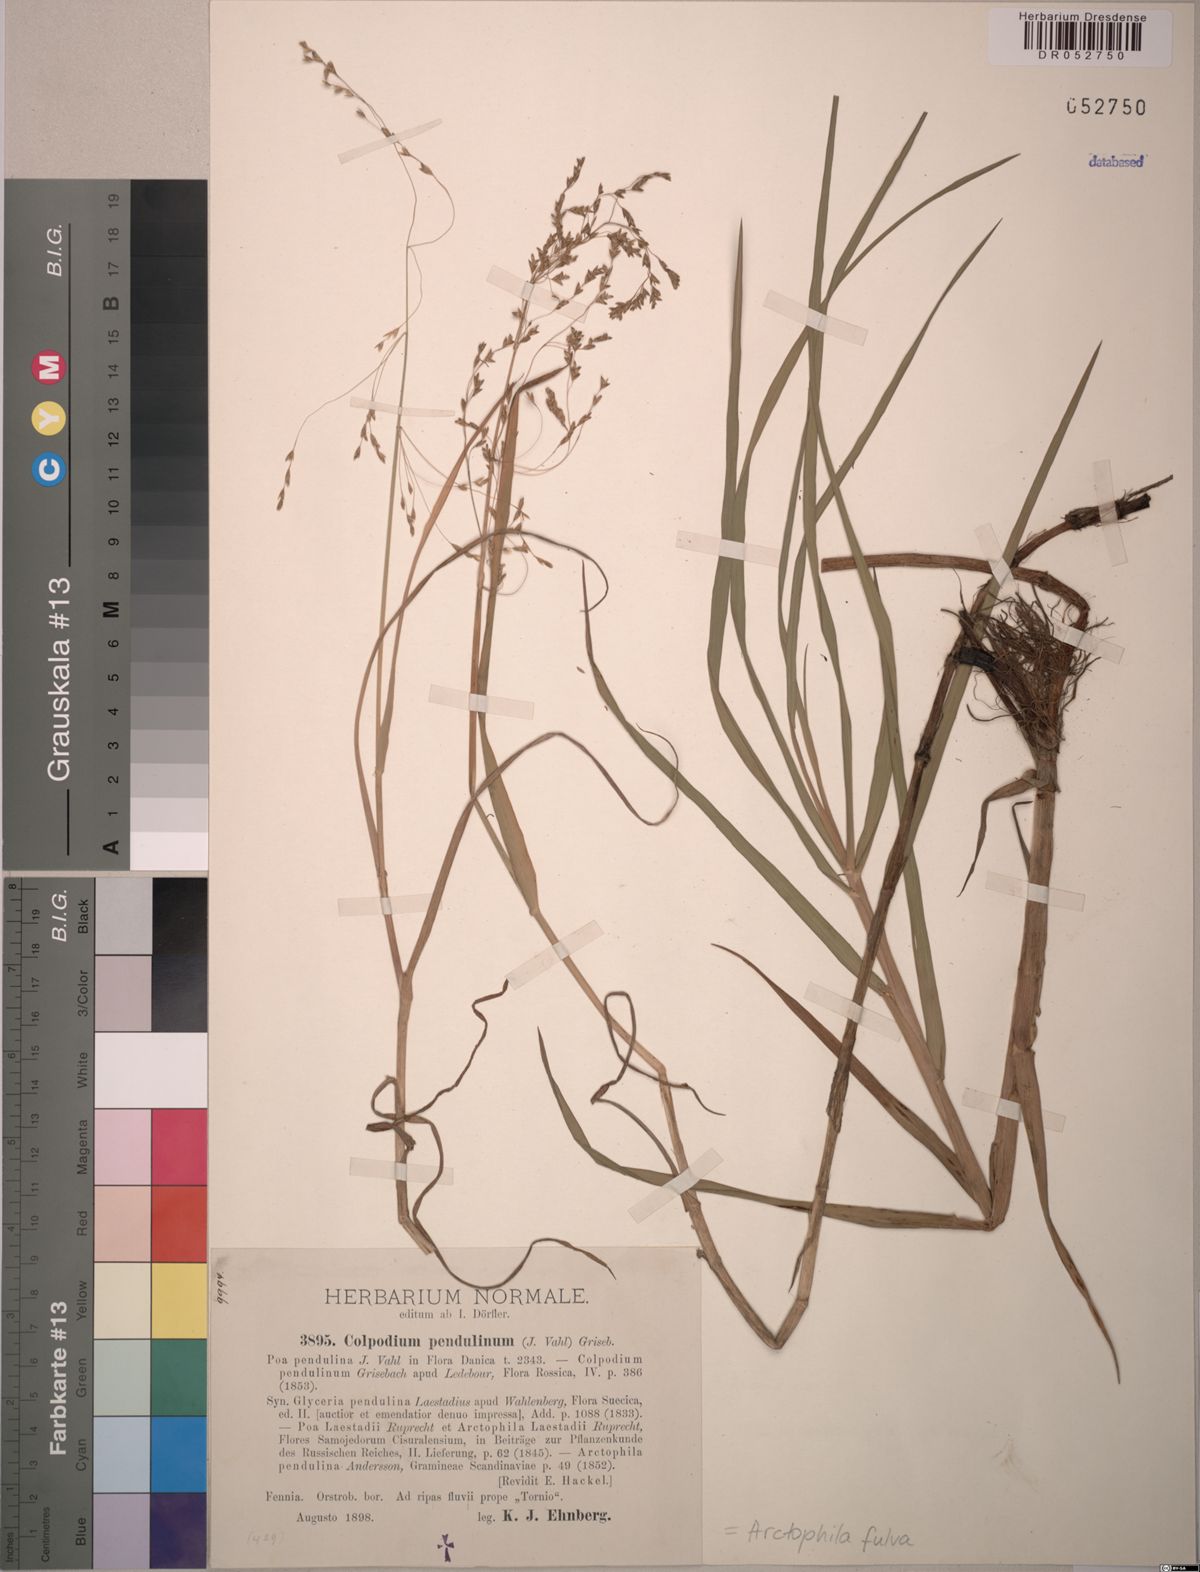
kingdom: Plantae
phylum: Tracheophyta
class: Liliopsida
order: Poales
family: Poaceae
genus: Dupontia
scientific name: Dupontia fulva
